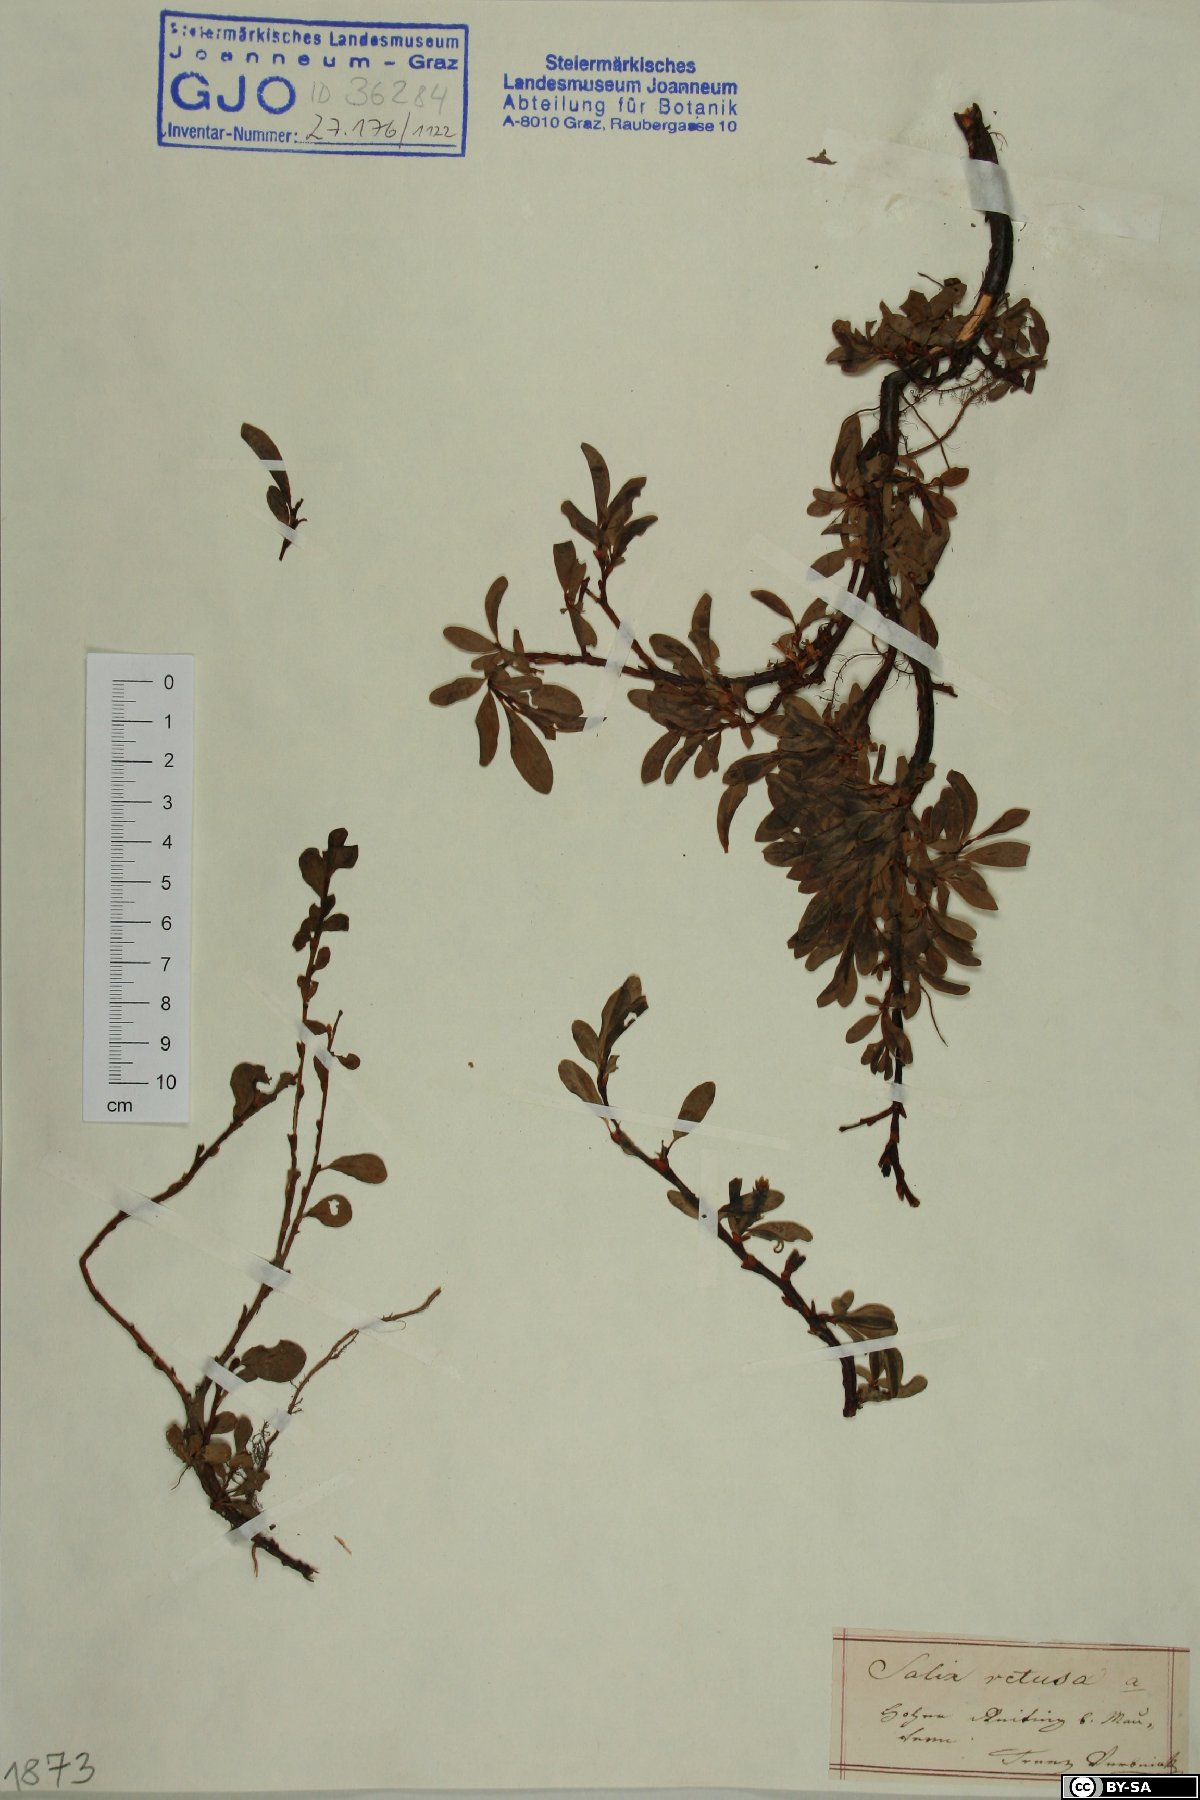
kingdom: Plantae
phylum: Tracheophyta
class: Magnoliopsida
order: Malpighiales
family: Salicaceae
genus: Salix
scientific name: Salix retusa
